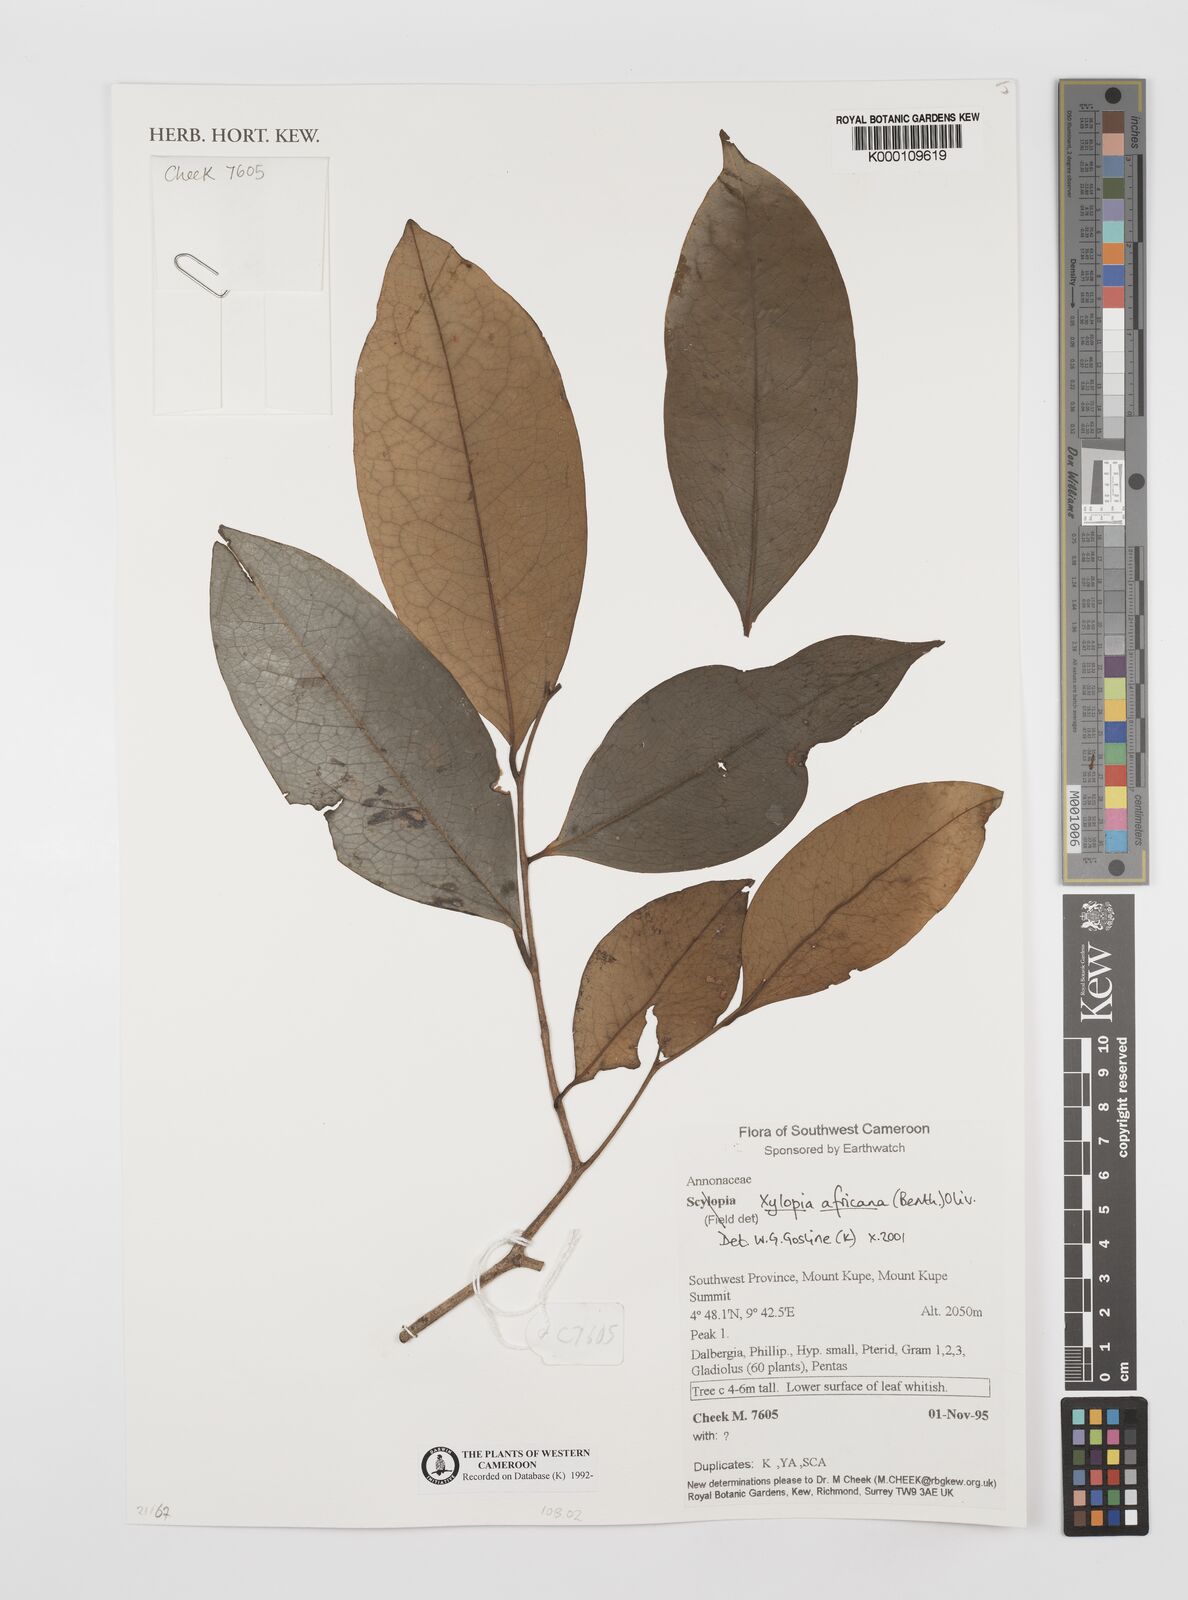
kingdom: Plantae
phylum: Tracheophyta
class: Magnoliopsida
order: Magnoliales
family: Annonaceae
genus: Xylopia
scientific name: Xylopia africana
